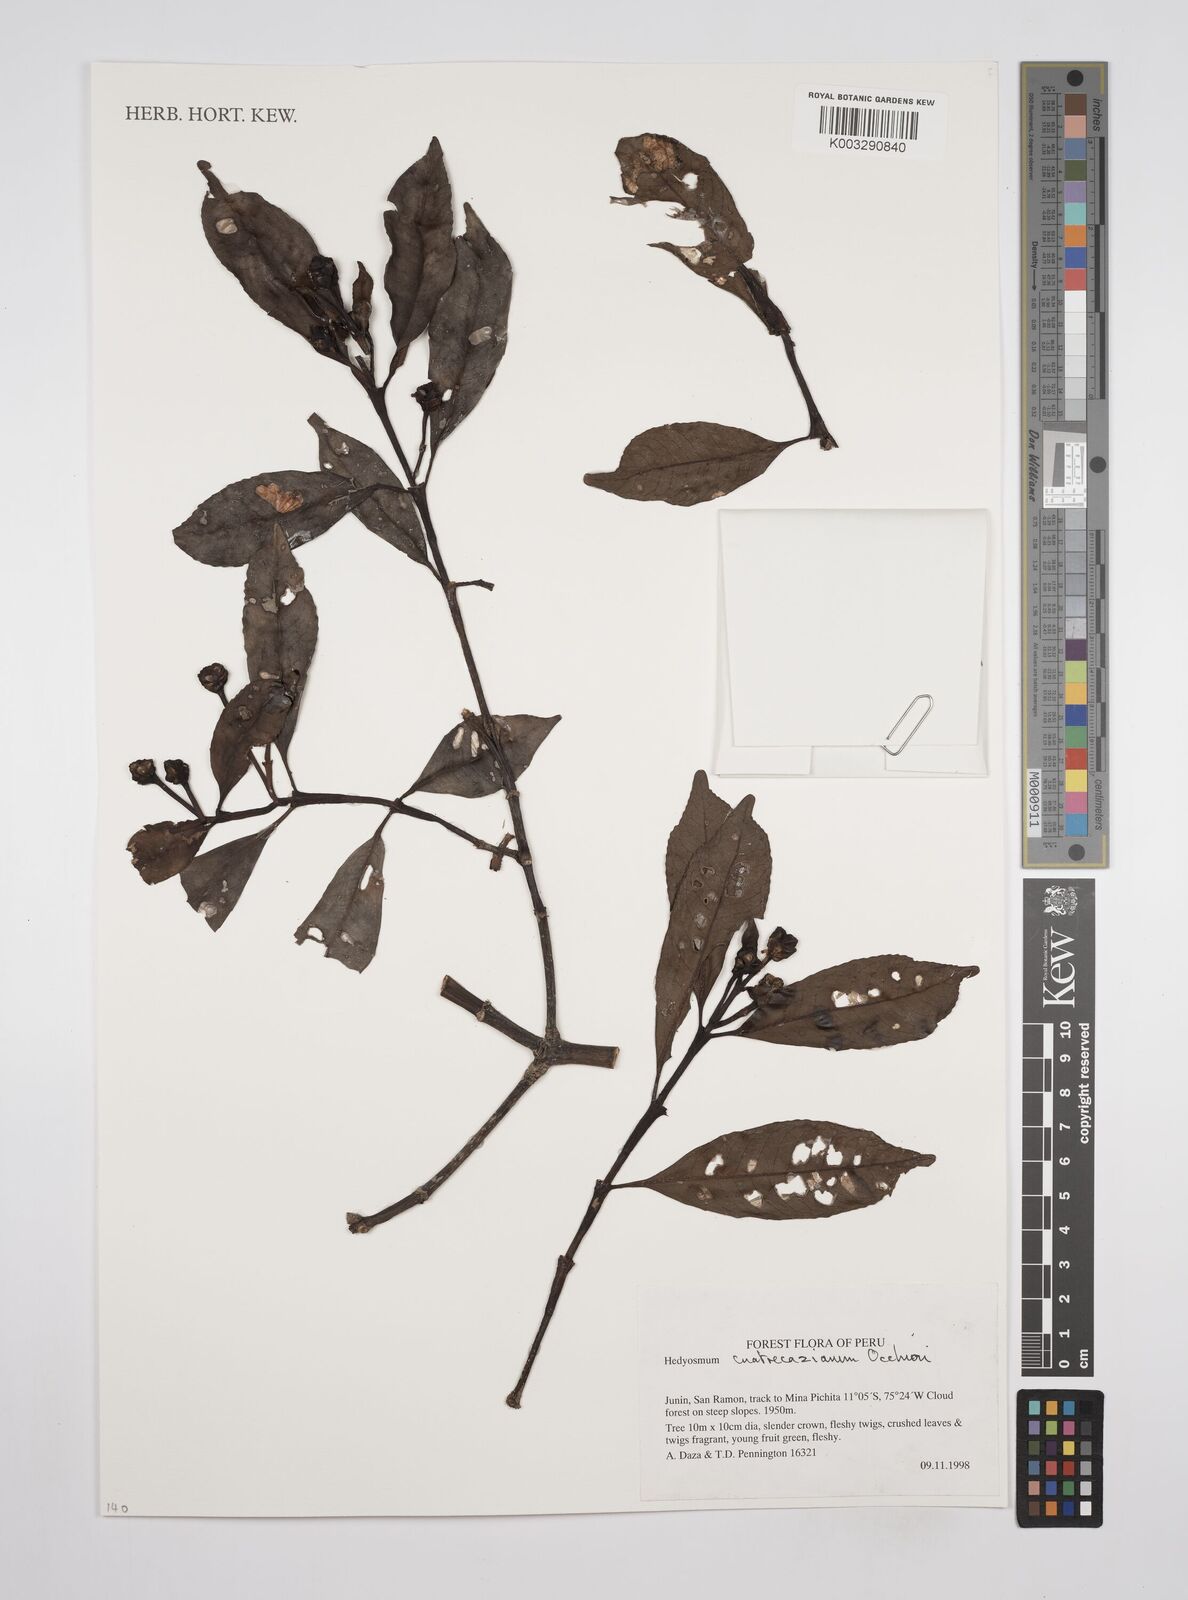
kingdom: Plantae
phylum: Tracheophyta
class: Magnoliopsida
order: Chloranthales
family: Chloranthaceae
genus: Hedyosmum
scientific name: Hedyosmum cuatrecazanum
